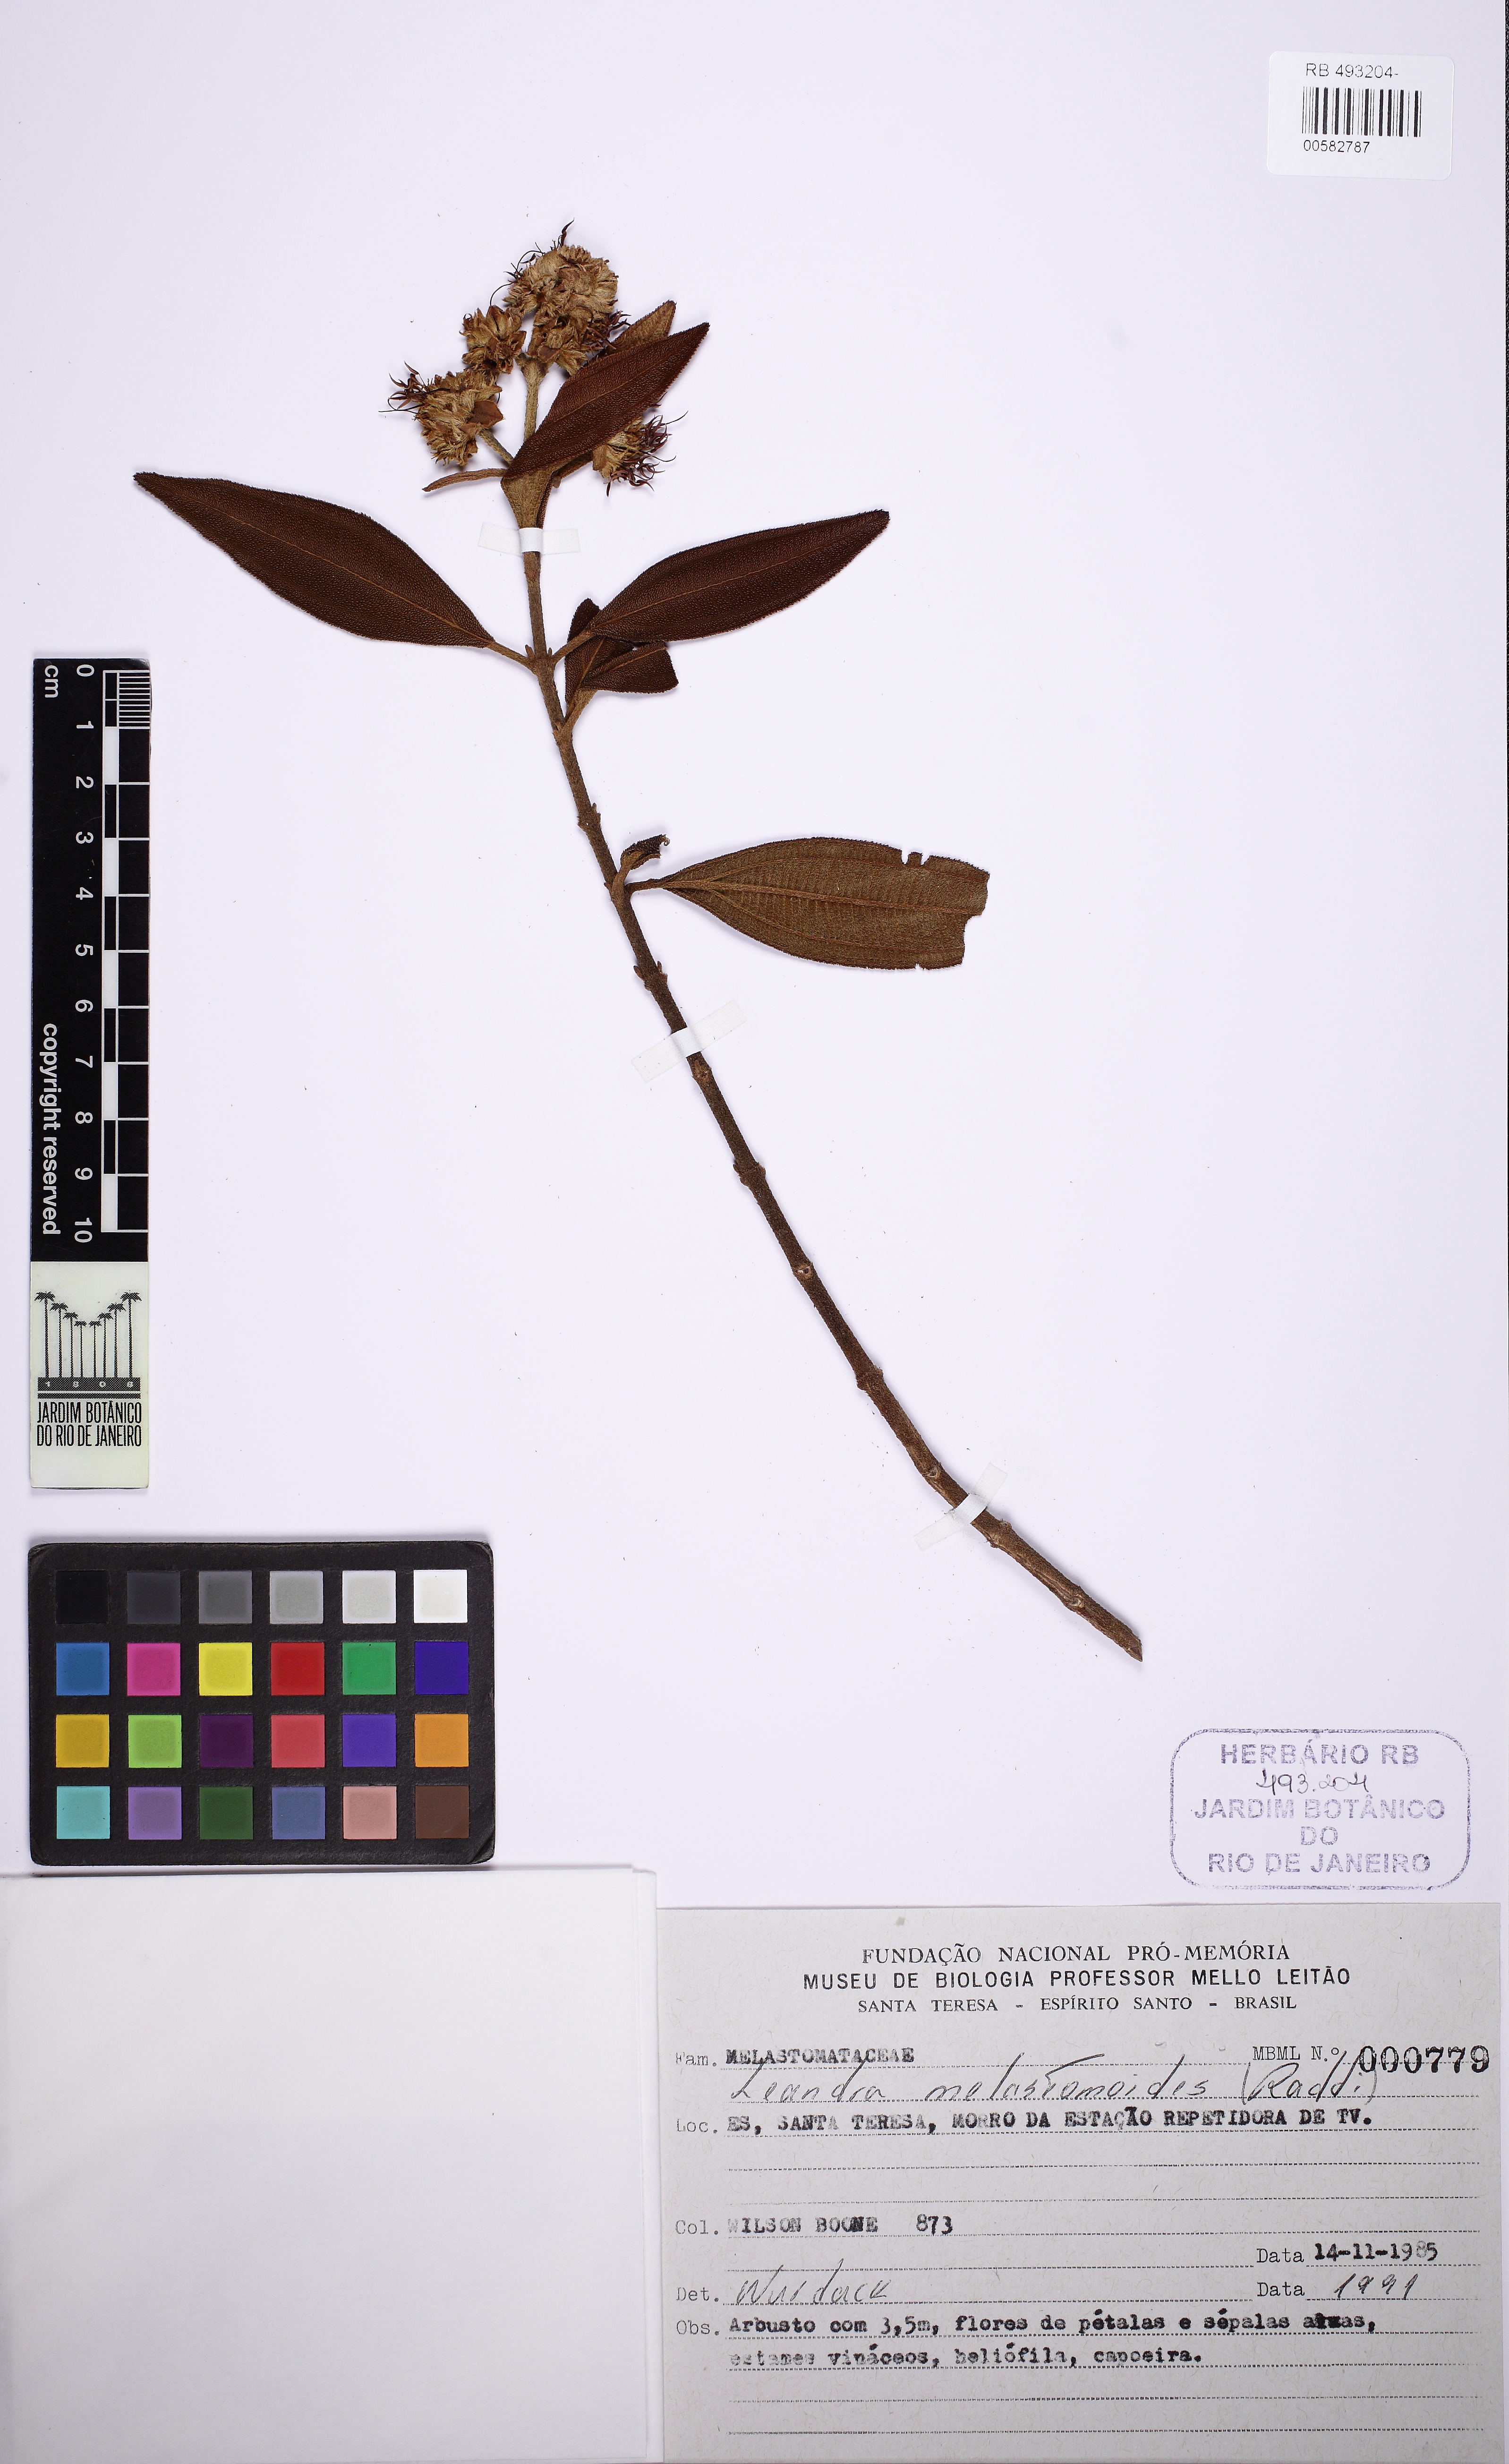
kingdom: Plantae
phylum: Tracheophyta
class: Magnoliopsida
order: Myrtales
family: Melastomataceae
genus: Miconia
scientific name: Miconia melastomoides
